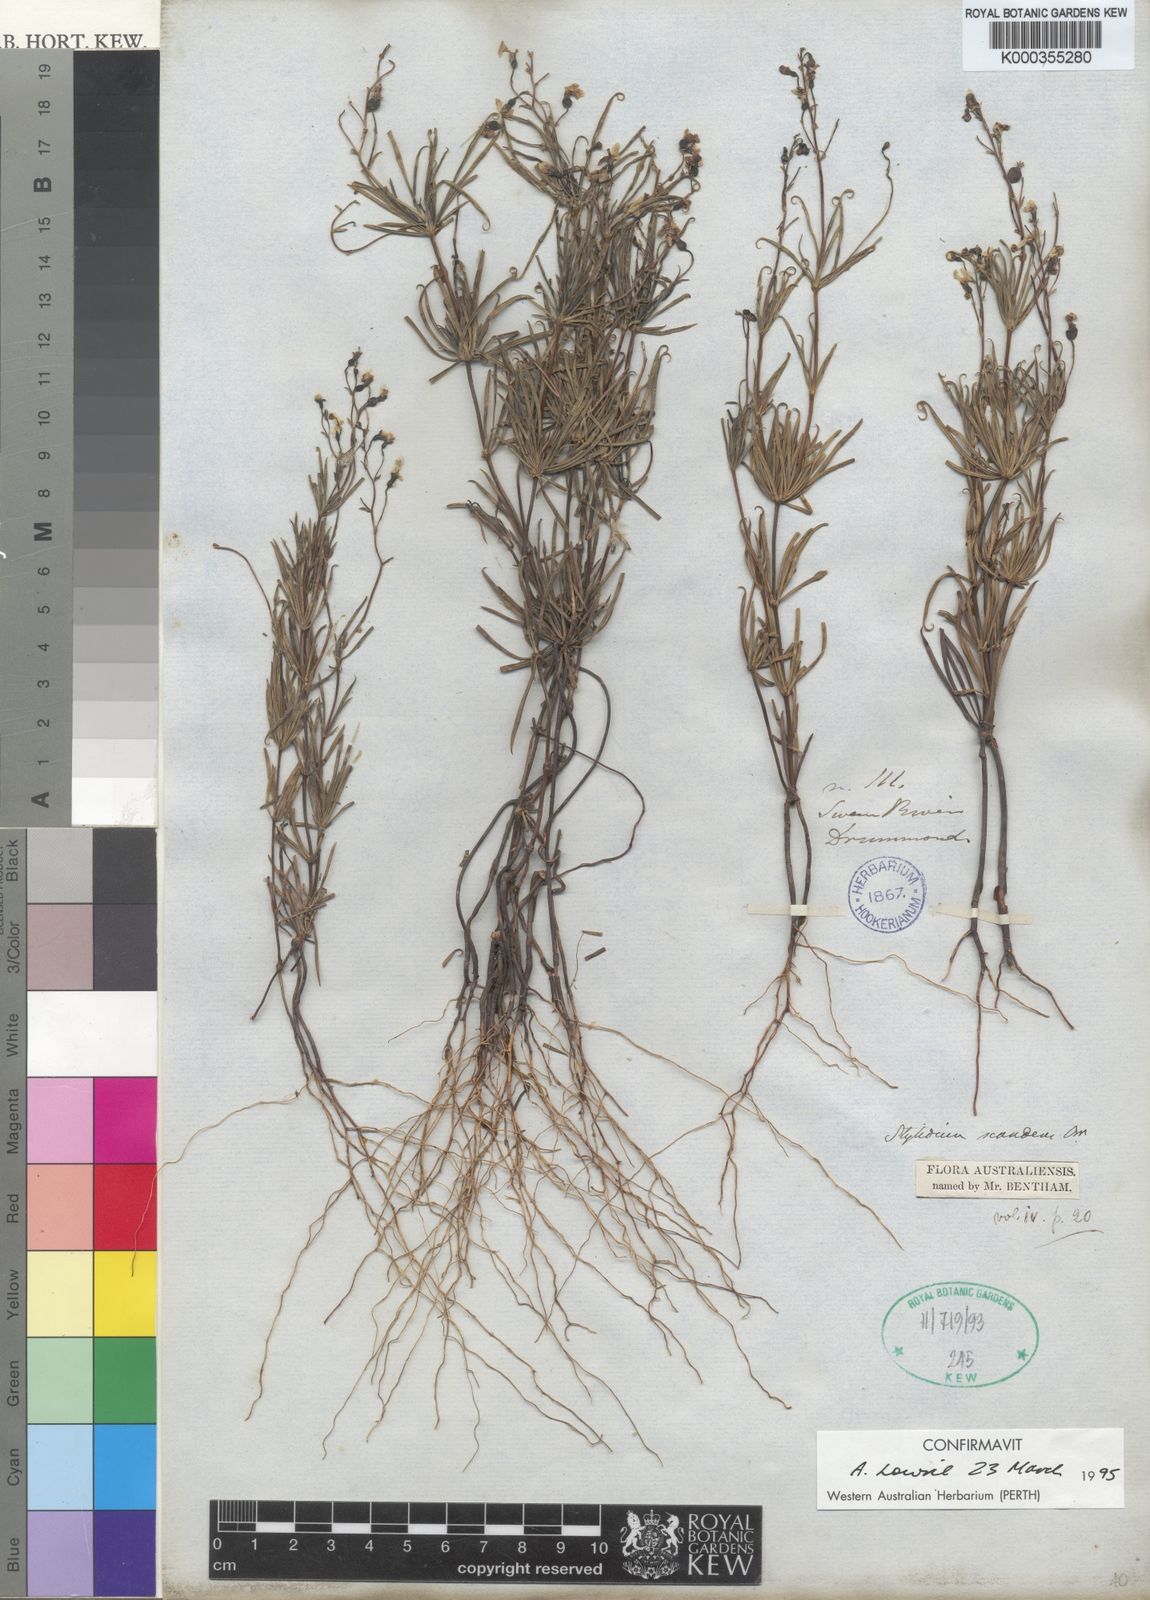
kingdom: Plantae
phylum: Tracheophyta
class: Magnoliopsida
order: Asterales
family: Stylidiaceae
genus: Stylidium
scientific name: Stylidium scandens
